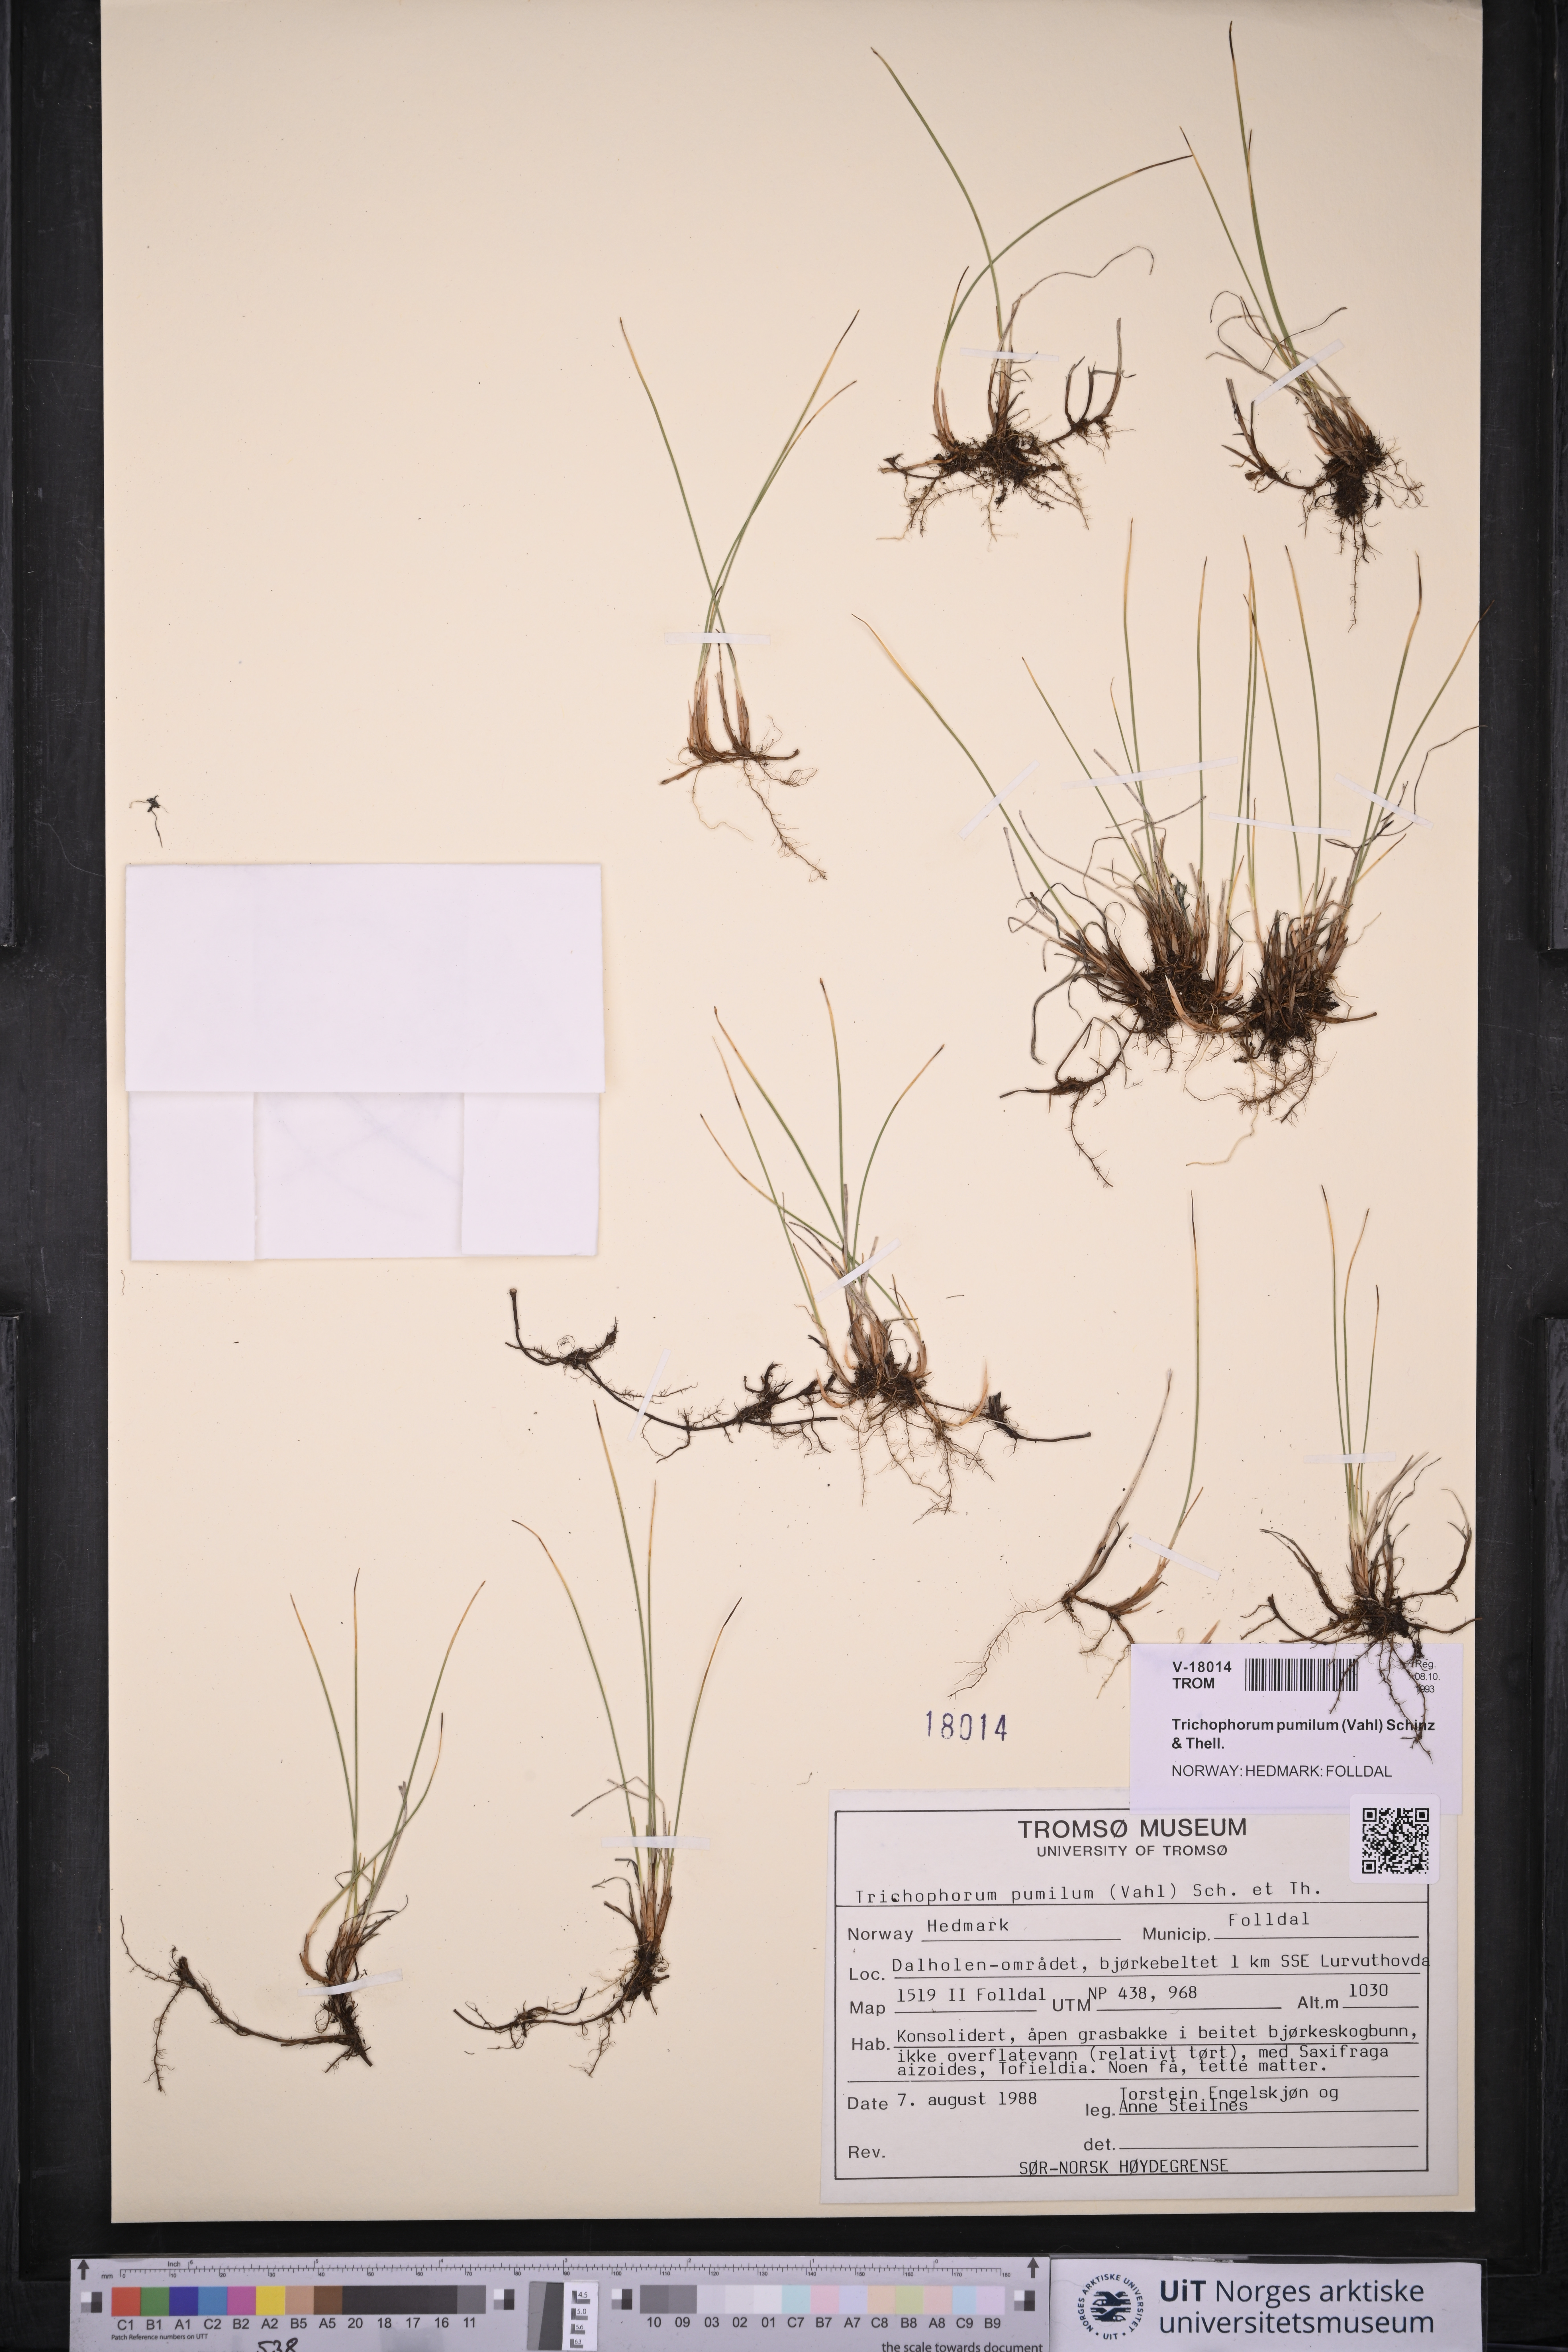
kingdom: Plantae
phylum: Tracheophyta
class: Liliopsida
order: Poales
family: Cyperaceae
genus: Trichophorum
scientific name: Trichophorum pumilum
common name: Rolland's bulrush
